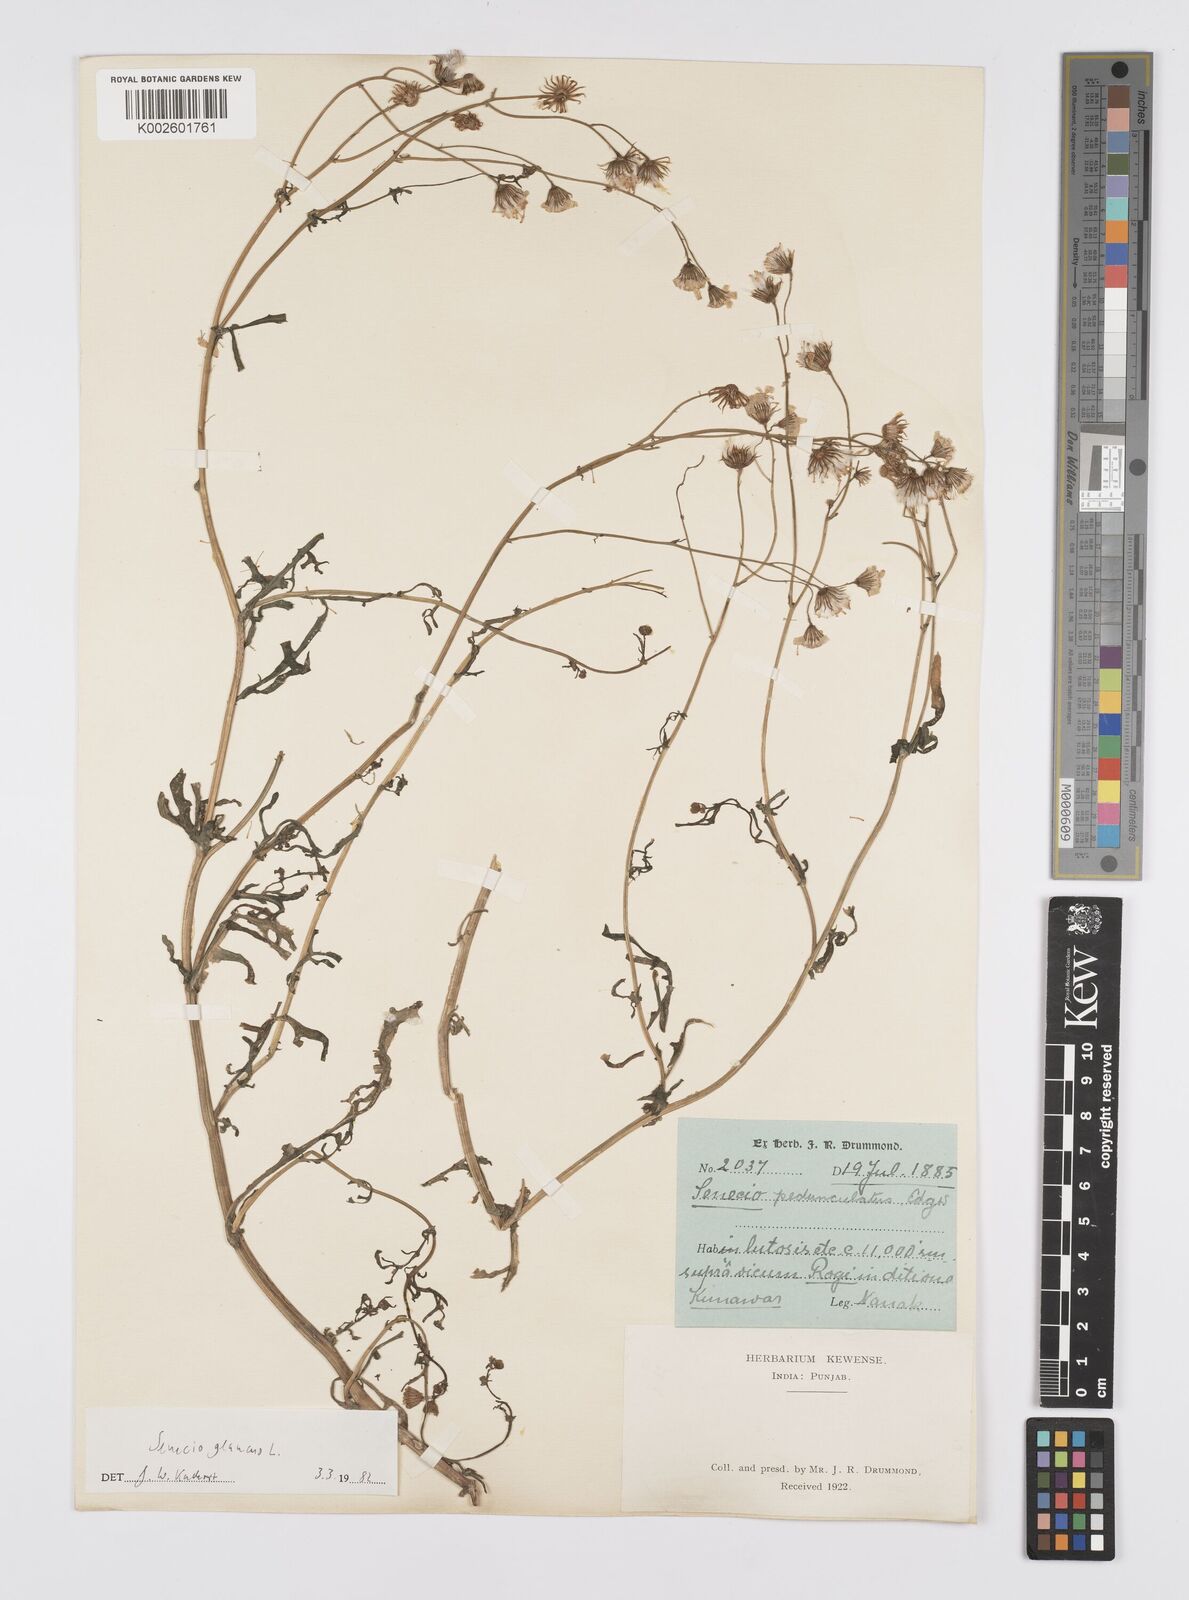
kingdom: Plantae
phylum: Tracheophyta
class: Magnoliopsida
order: Asterales
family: Asteraceae
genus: Senecio
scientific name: Senecio krascheninnikovii
